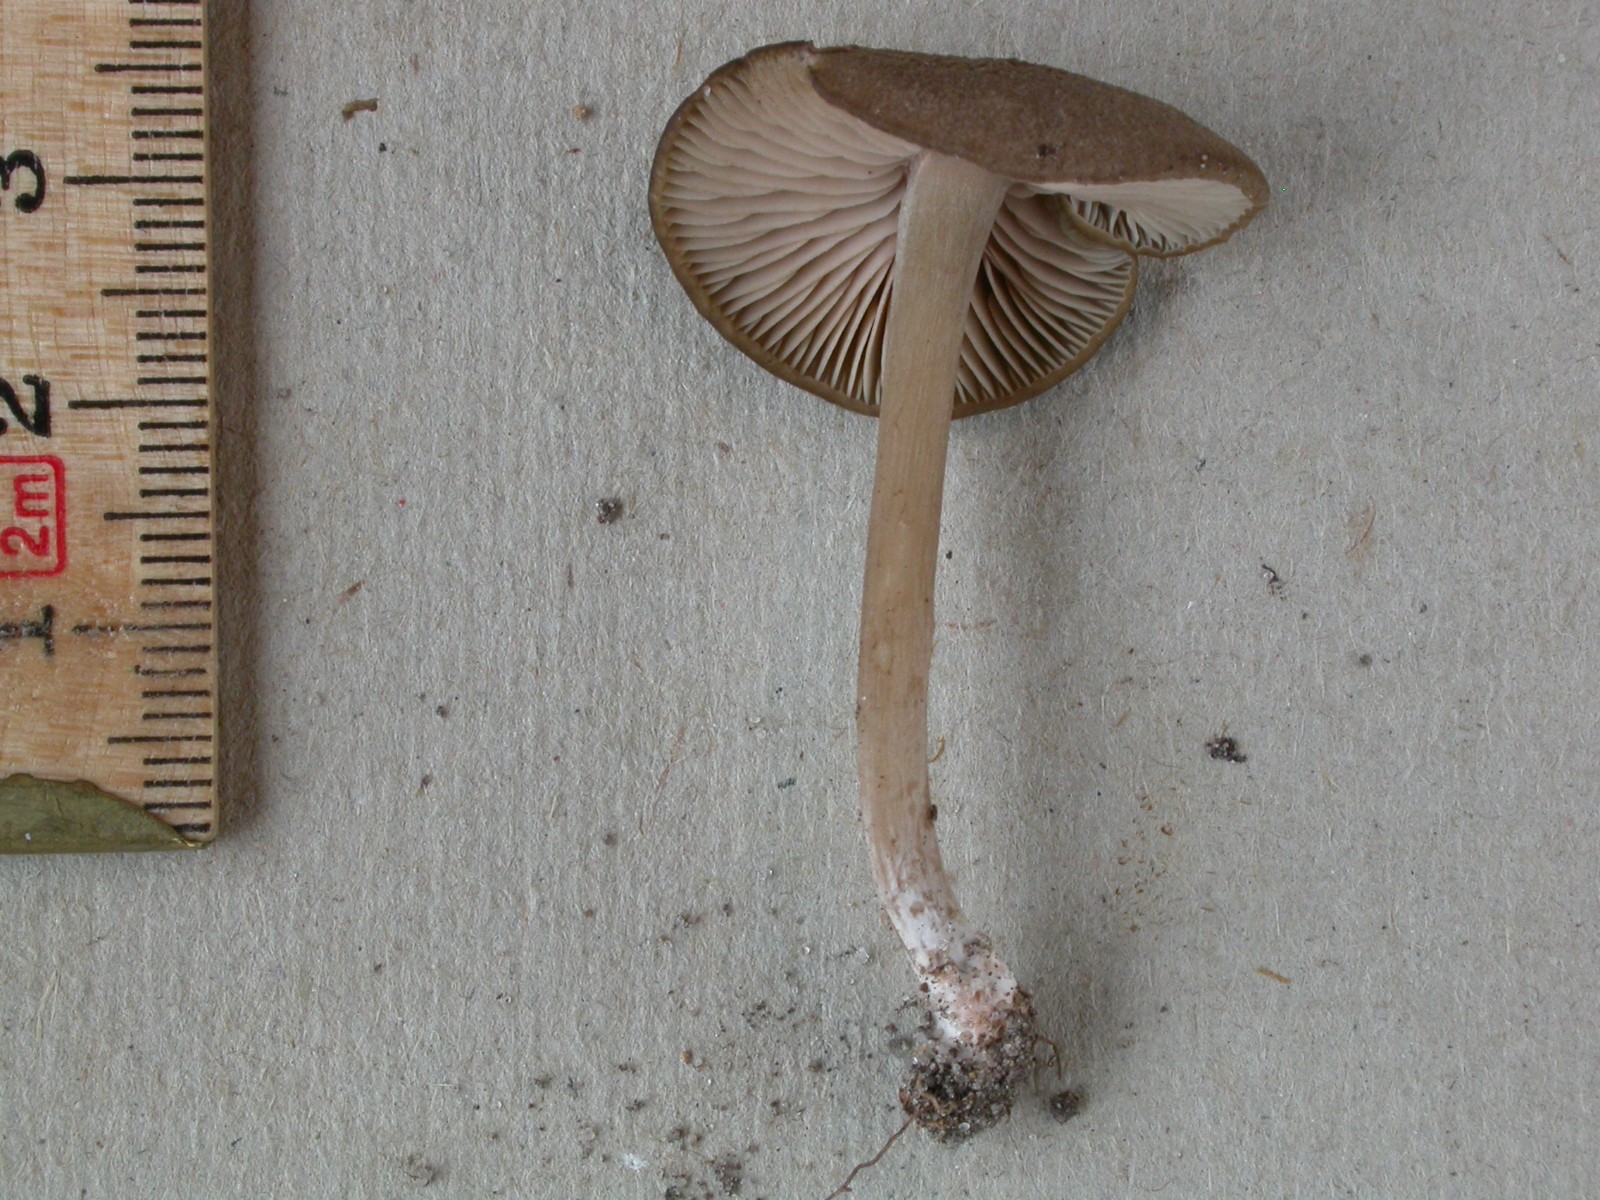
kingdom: Fungi
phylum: Basidiomycota
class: Agaricomycetes
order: Agaricales
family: Entolomataceae
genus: Entoloma
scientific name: Entoloma turci
